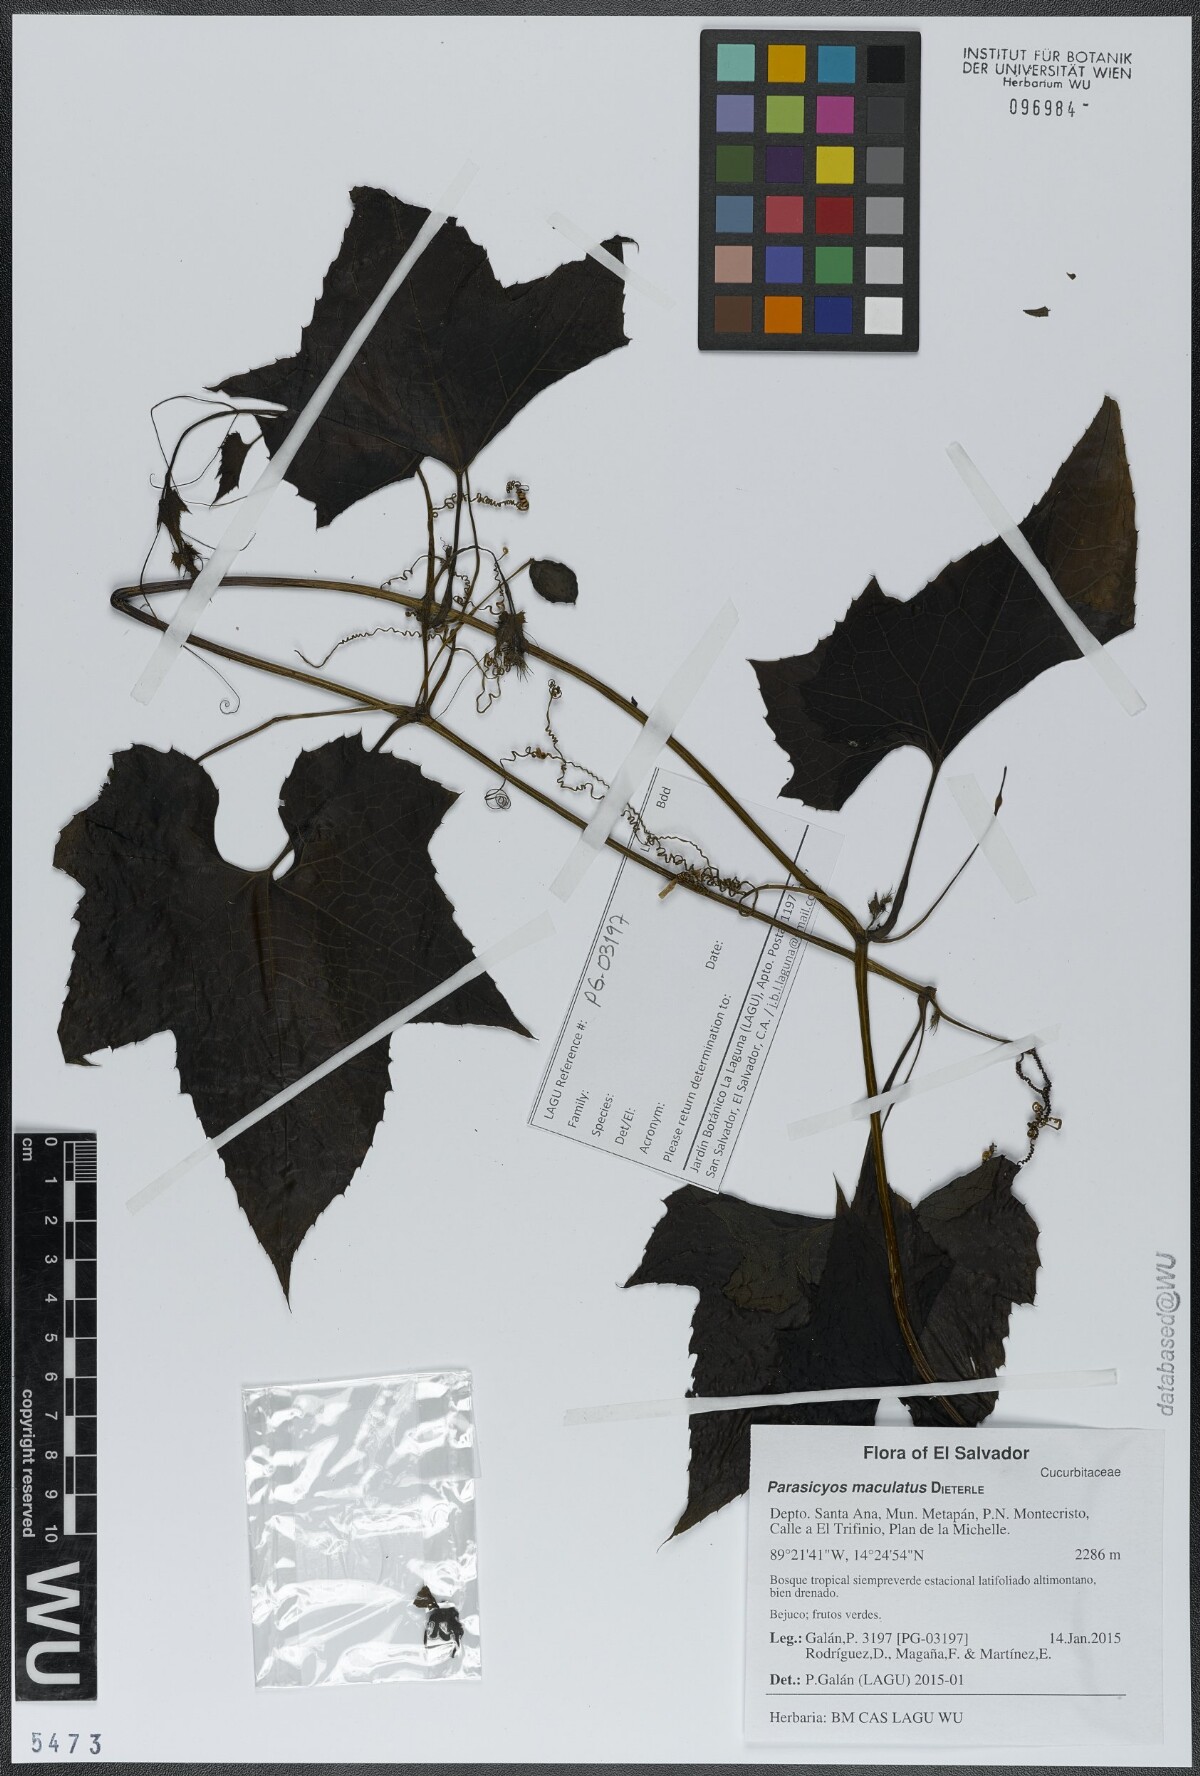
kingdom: Plantae
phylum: Tracheophyta
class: Magnoliopsida
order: Cucurbitales
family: Cucurbitaceae
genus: Parasicyos
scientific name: Parasicyos maculatus
